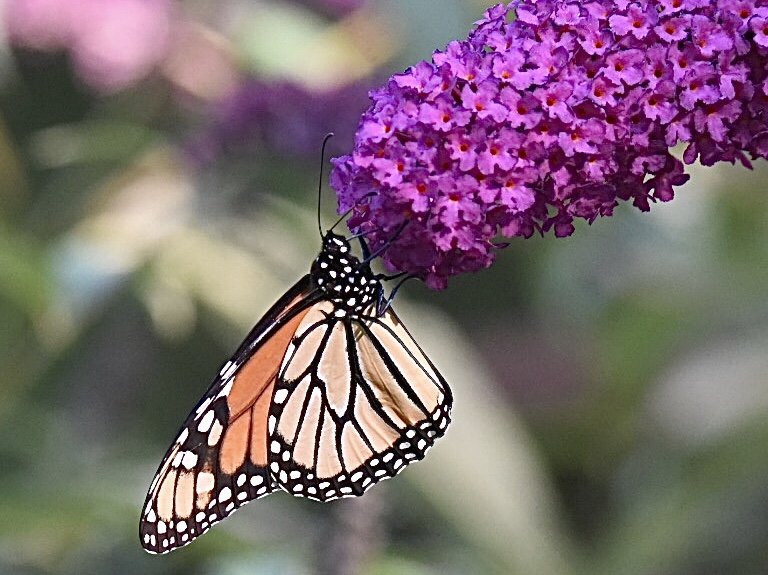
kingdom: Animalia
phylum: Arthropoda
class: Insecta
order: Lepidoptera
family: Nymphalidae
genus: Danaus
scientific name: Danaus plexippus
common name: Monarch
